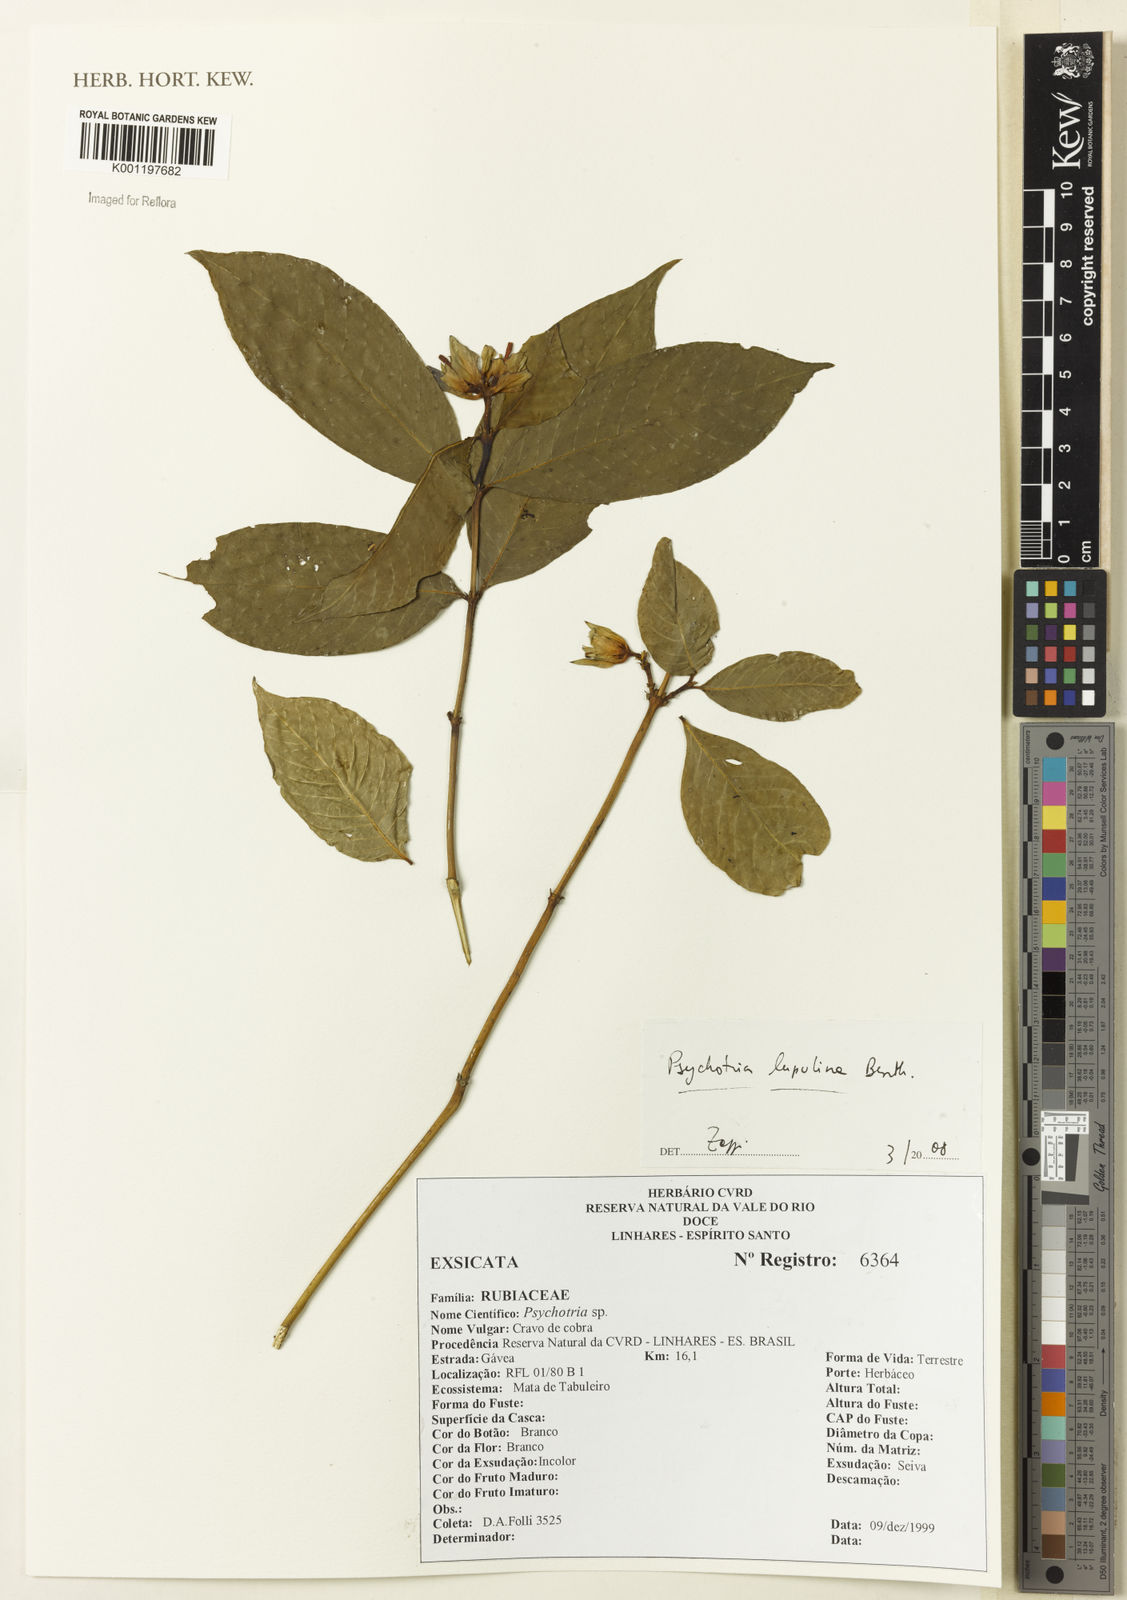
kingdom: Plantae
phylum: Tracheophyta
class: Magnoliopsida
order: Gentianales
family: Rubiaceae
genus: Palicourea
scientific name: Palicourea justiciifolia
